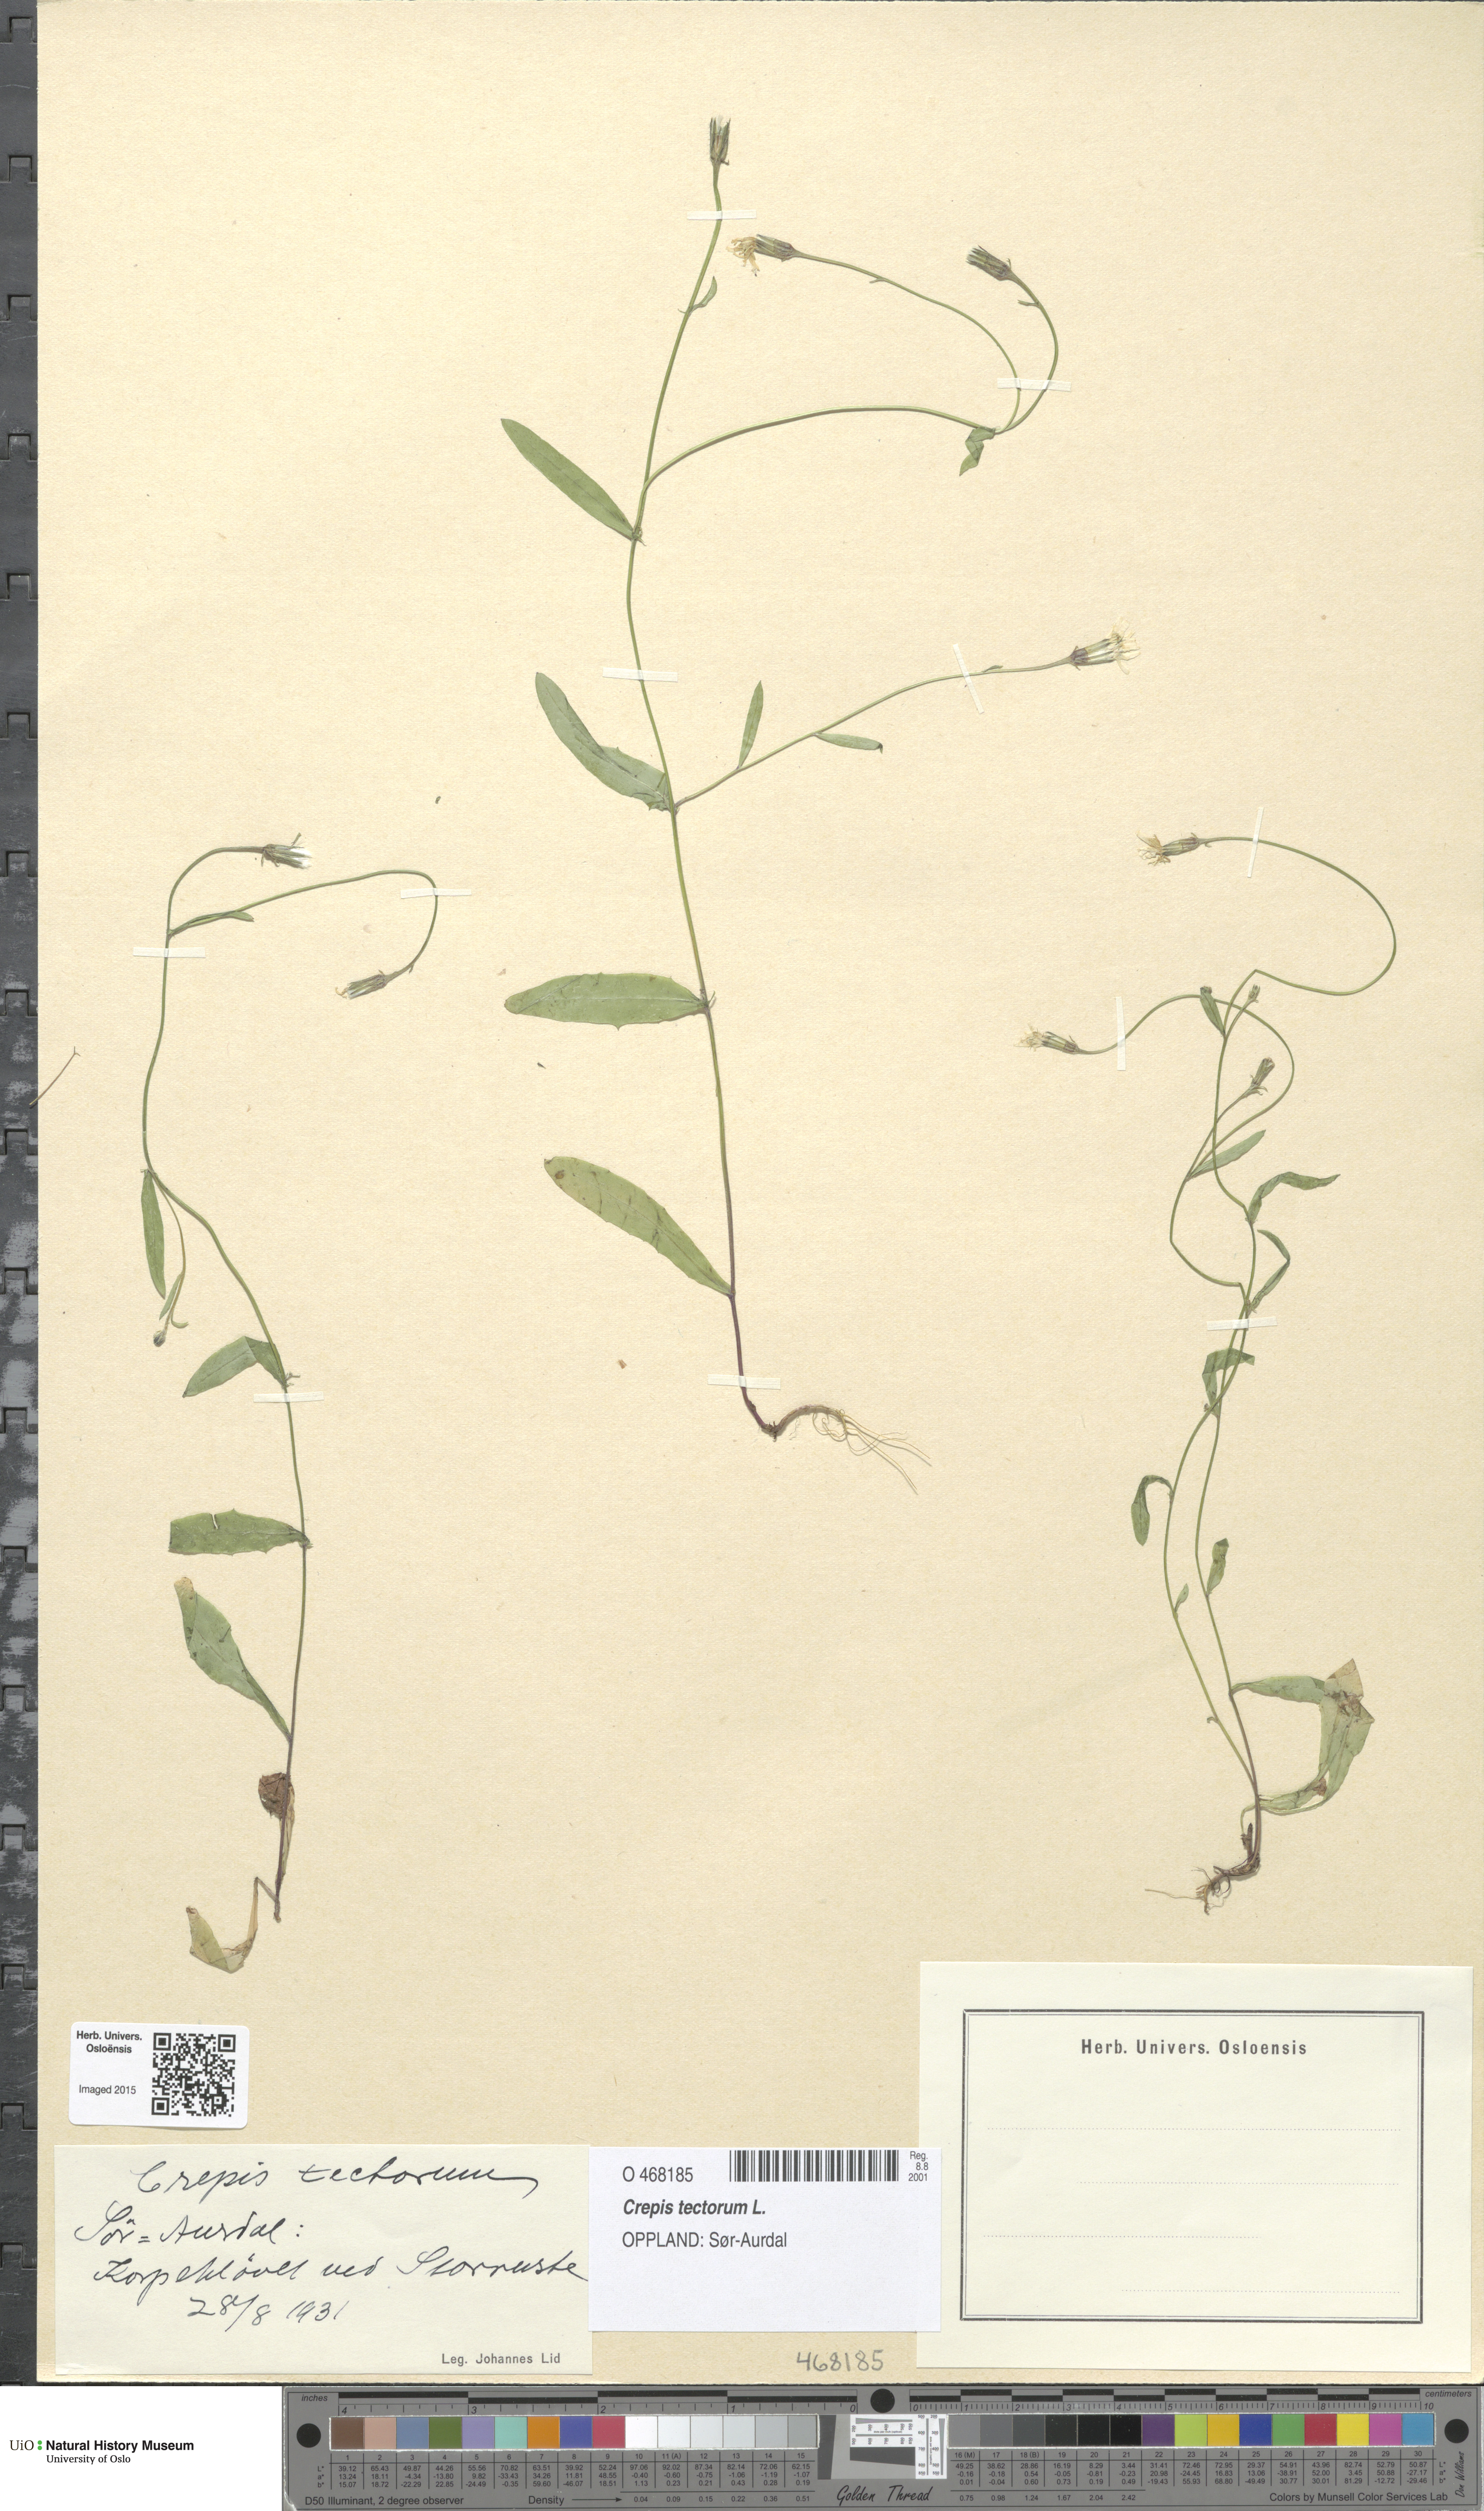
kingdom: Plantae
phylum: Tracheophyta
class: Magnoliopsida
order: Asterales
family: Asteraceae
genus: Crepis
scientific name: Crepis tectorum
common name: Narrow-leaved hawk's-beard
